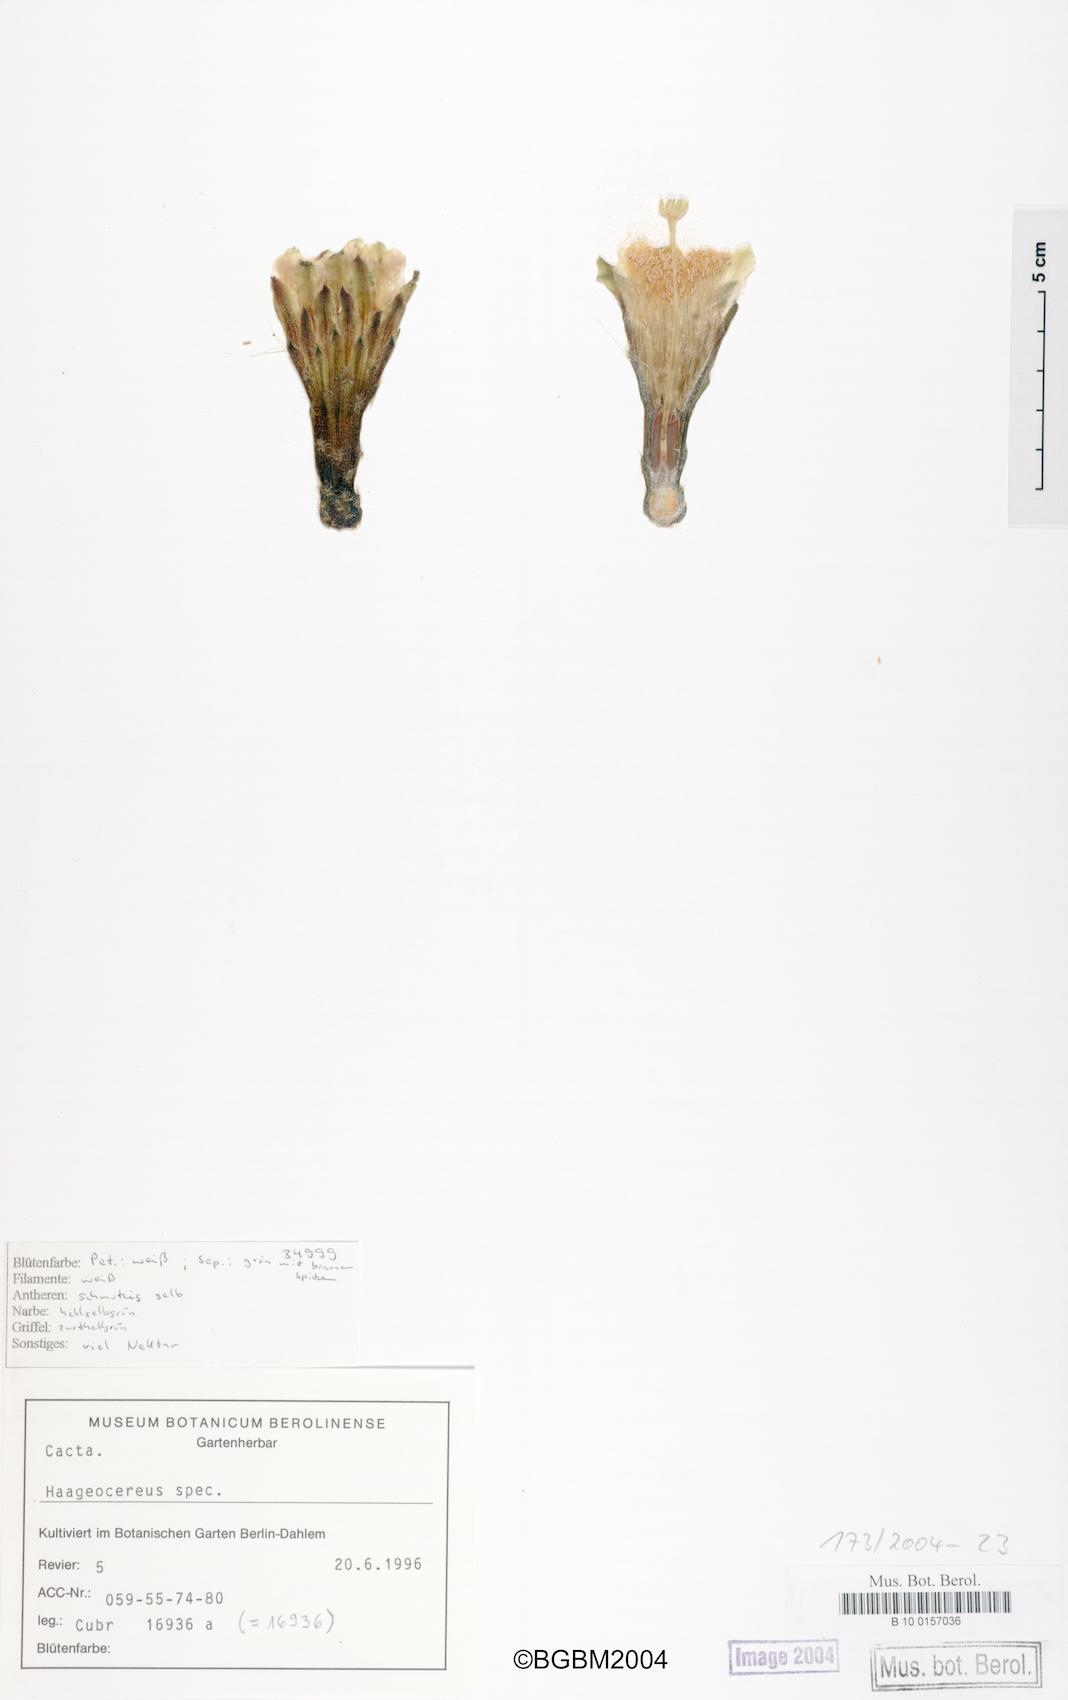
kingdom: Plantae
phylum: Tracheophyta
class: Magnoliopsida
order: Caryophyllales
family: Cactaceae
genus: Haageocereus
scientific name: Haageocereus
